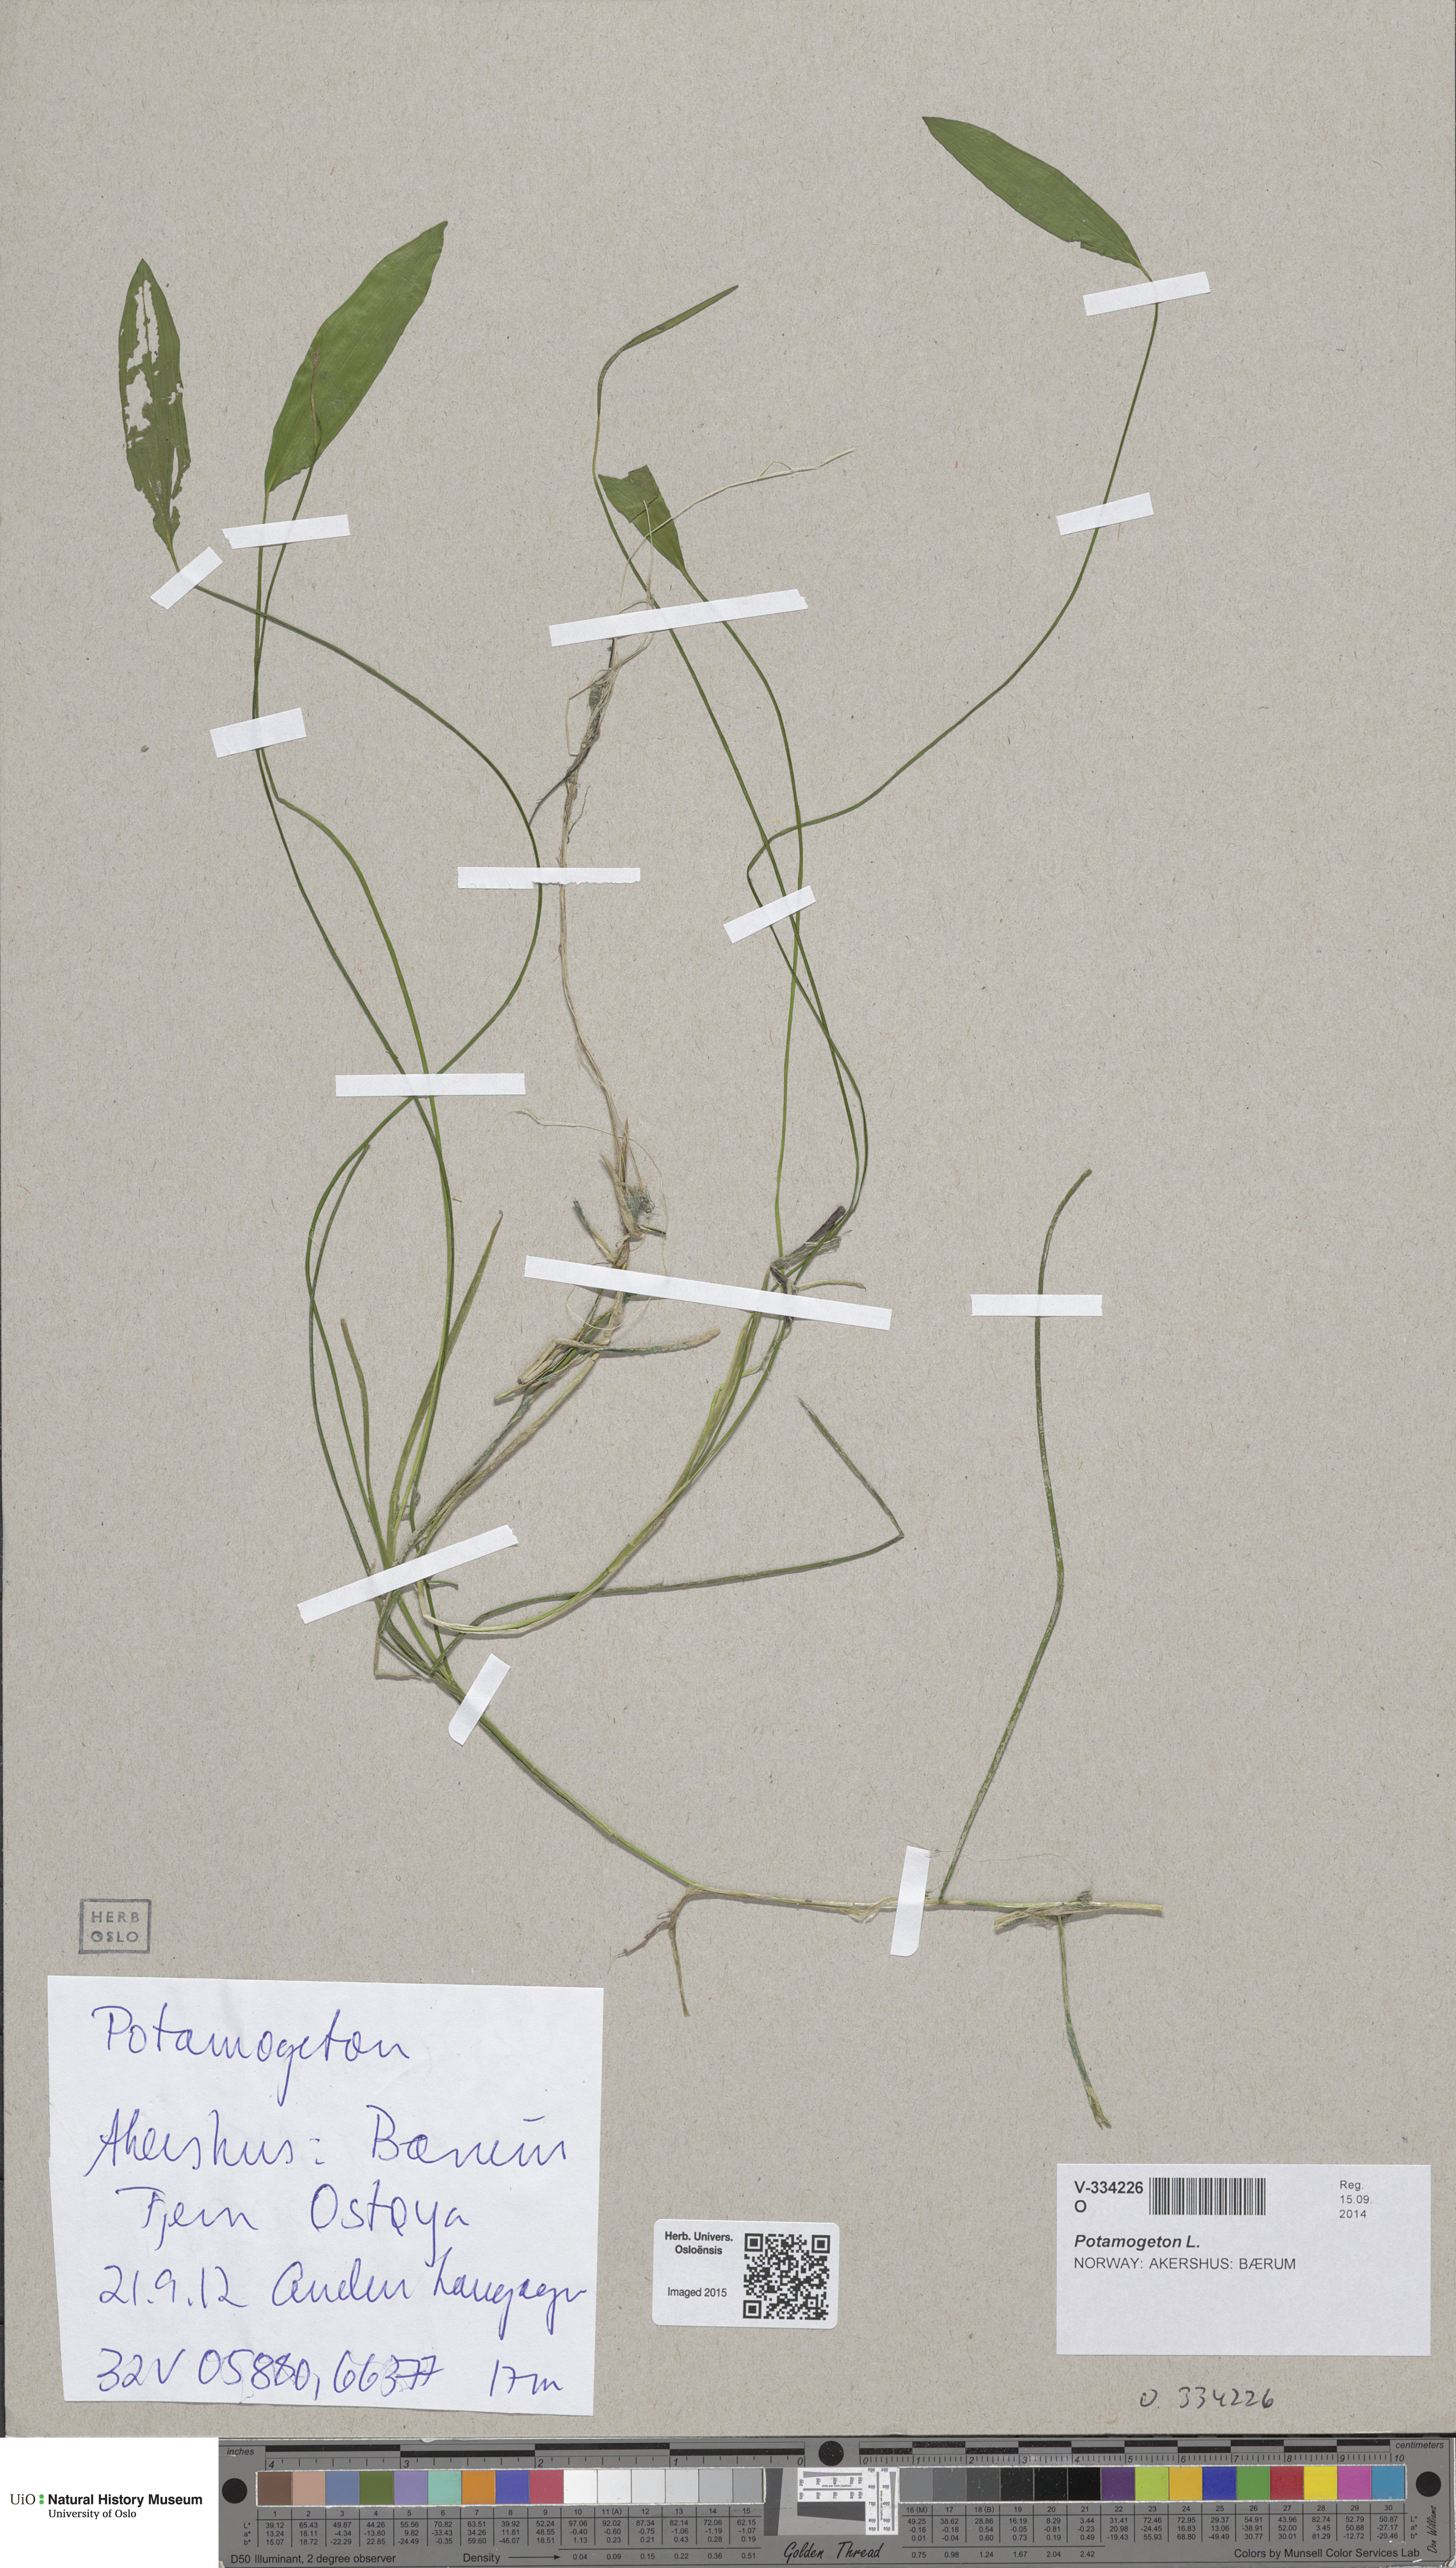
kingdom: Plantae
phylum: Tracheophyta
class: Liliopsida
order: Alismatales
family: Potamogetonaceae
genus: Potamogeton
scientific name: Potamogeton natans
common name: Broad-leaved pondweed
